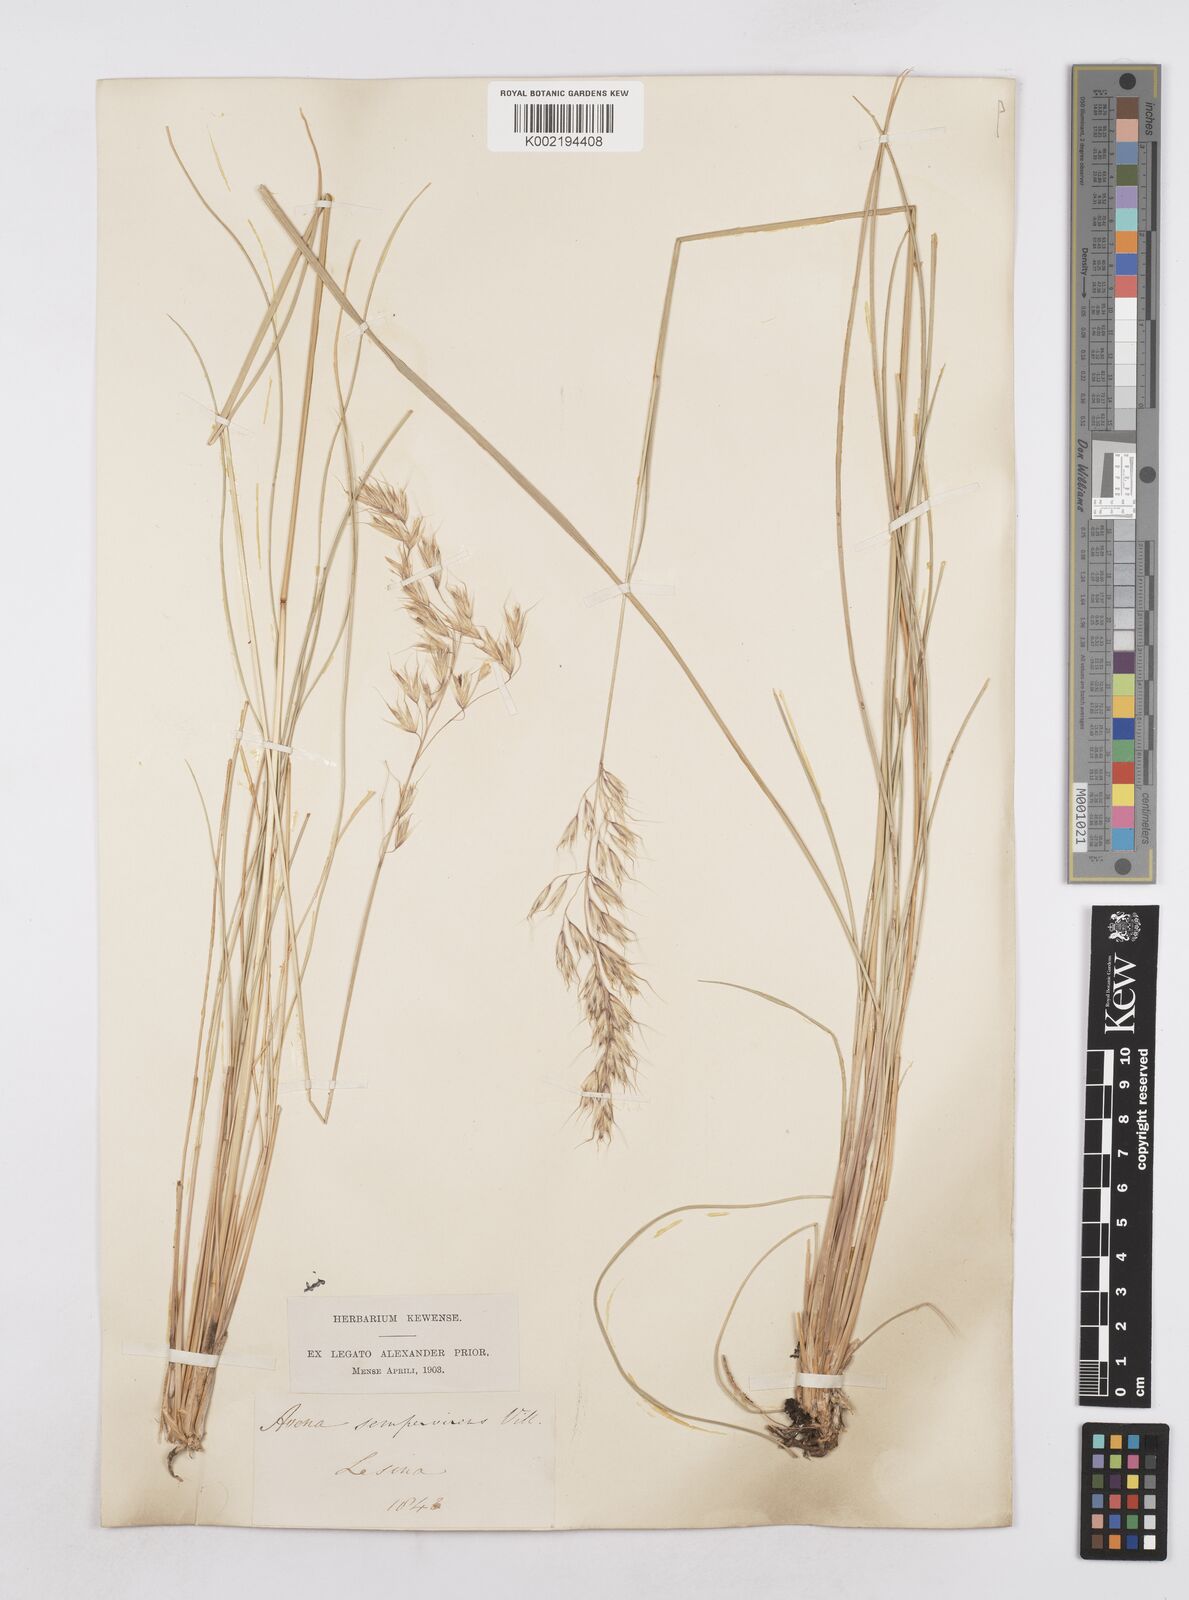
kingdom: Plantae
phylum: Tracheophyta
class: Liliopsida
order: Poales
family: Poaceae
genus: Helictotrichon
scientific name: Helictotrichon
